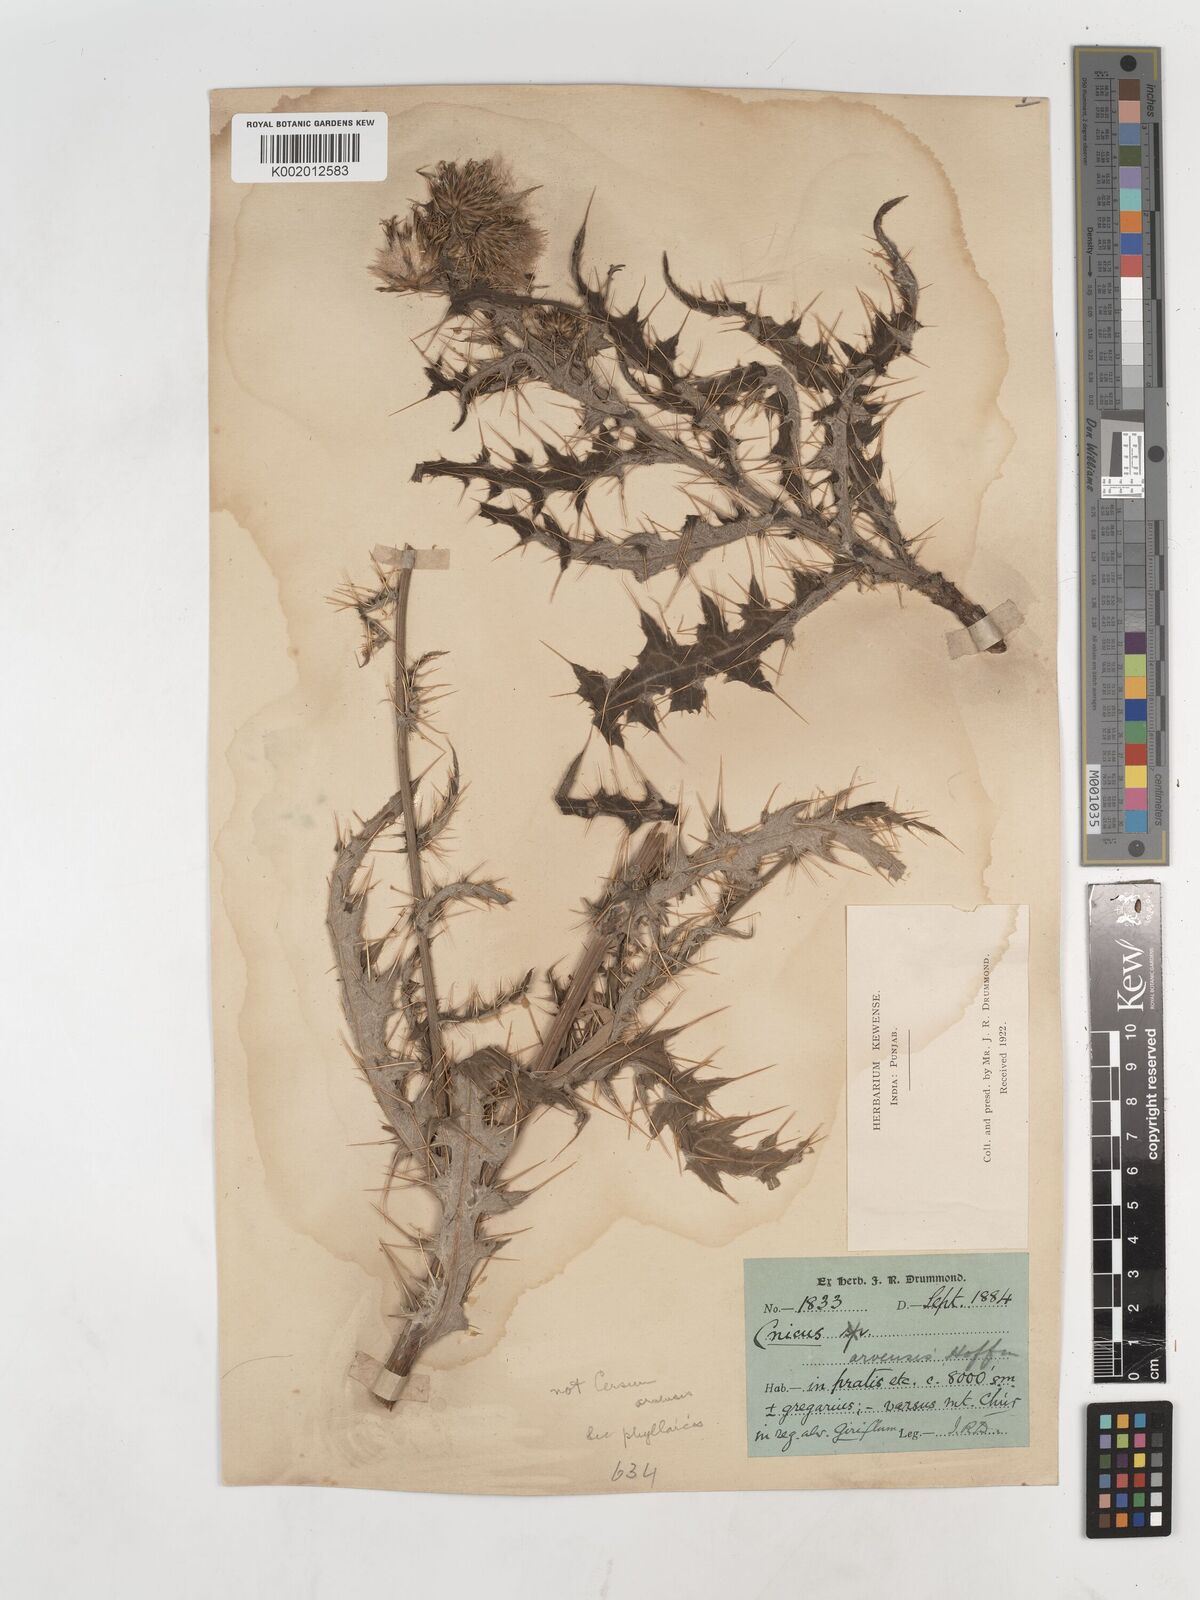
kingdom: Plantae
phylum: Tracheophyta
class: Magnoliopsida
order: Asterales
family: Asteraceae
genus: Cirsium
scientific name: Cirsium wallichii
